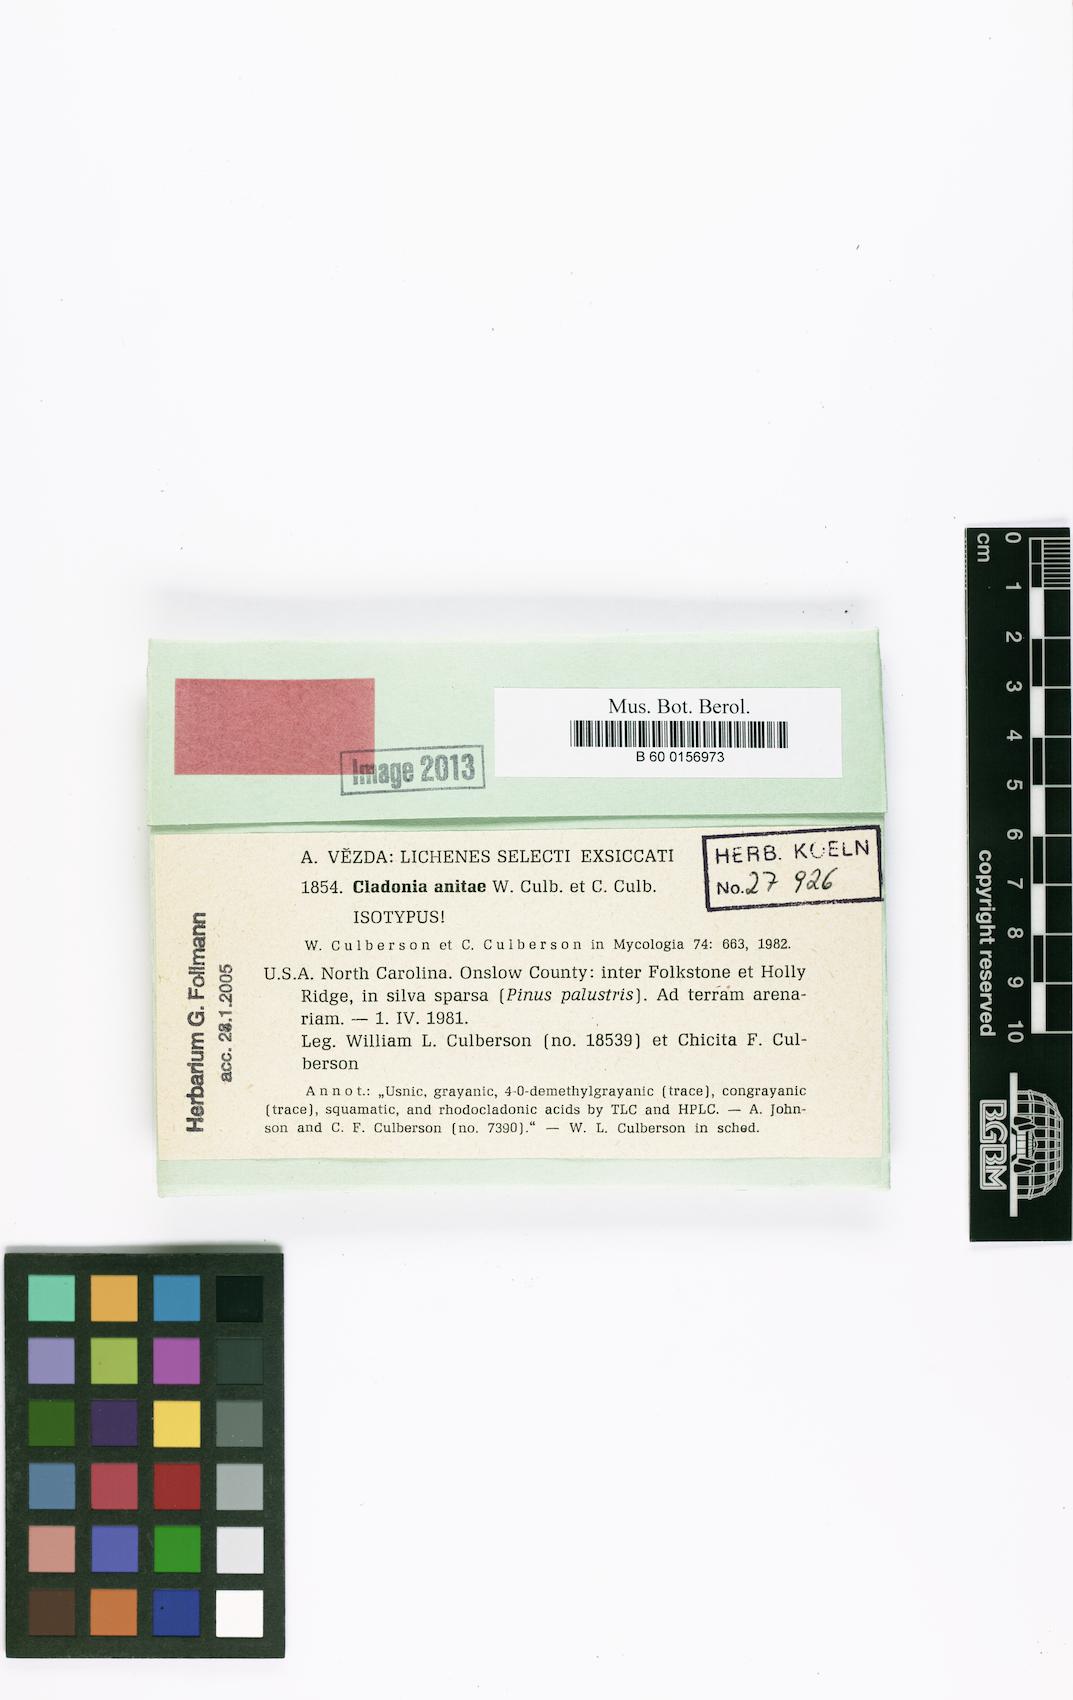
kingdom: Fungi
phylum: Ascomycota
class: Lecanoromycetes
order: Lecanorales
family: Cladoniaceae
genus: Cladonia
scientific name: Cladonia anitae
